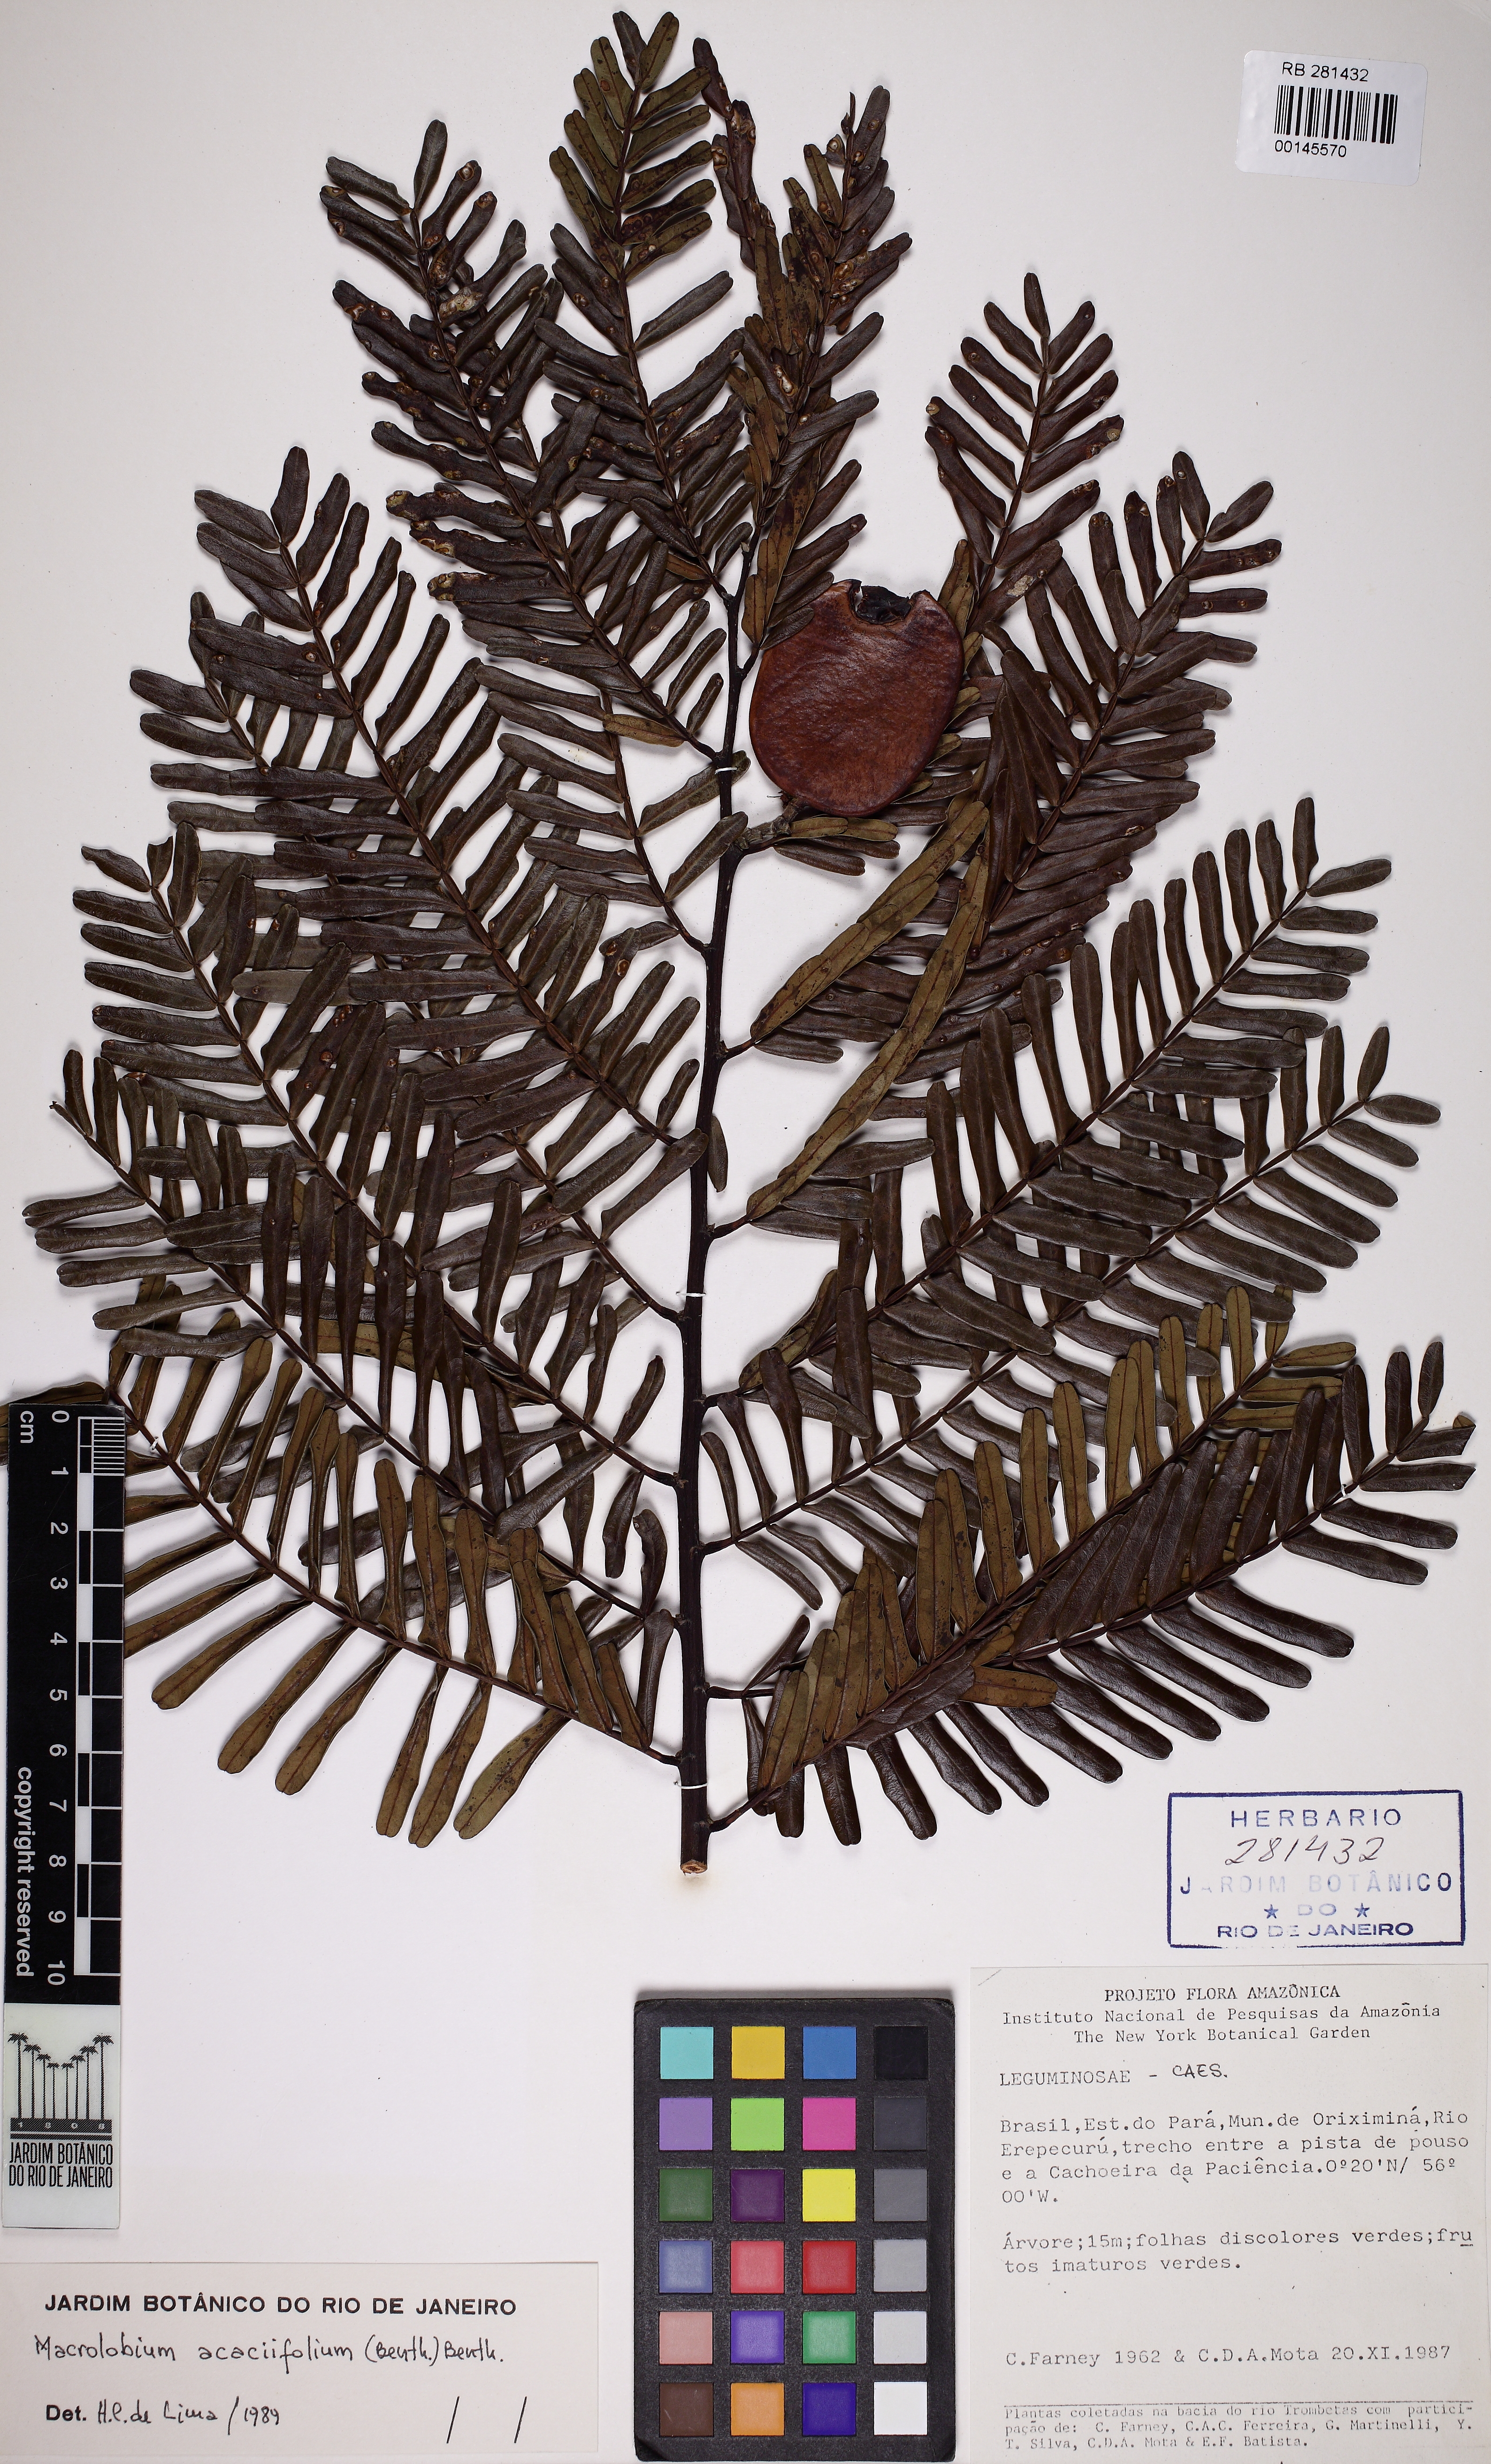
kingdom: Plantae
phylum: Tracheophyta
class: Magnoliopsida
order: Fabales
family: Fabaceae
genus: Macrolobium
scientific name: Macrolobium acaciifolium
